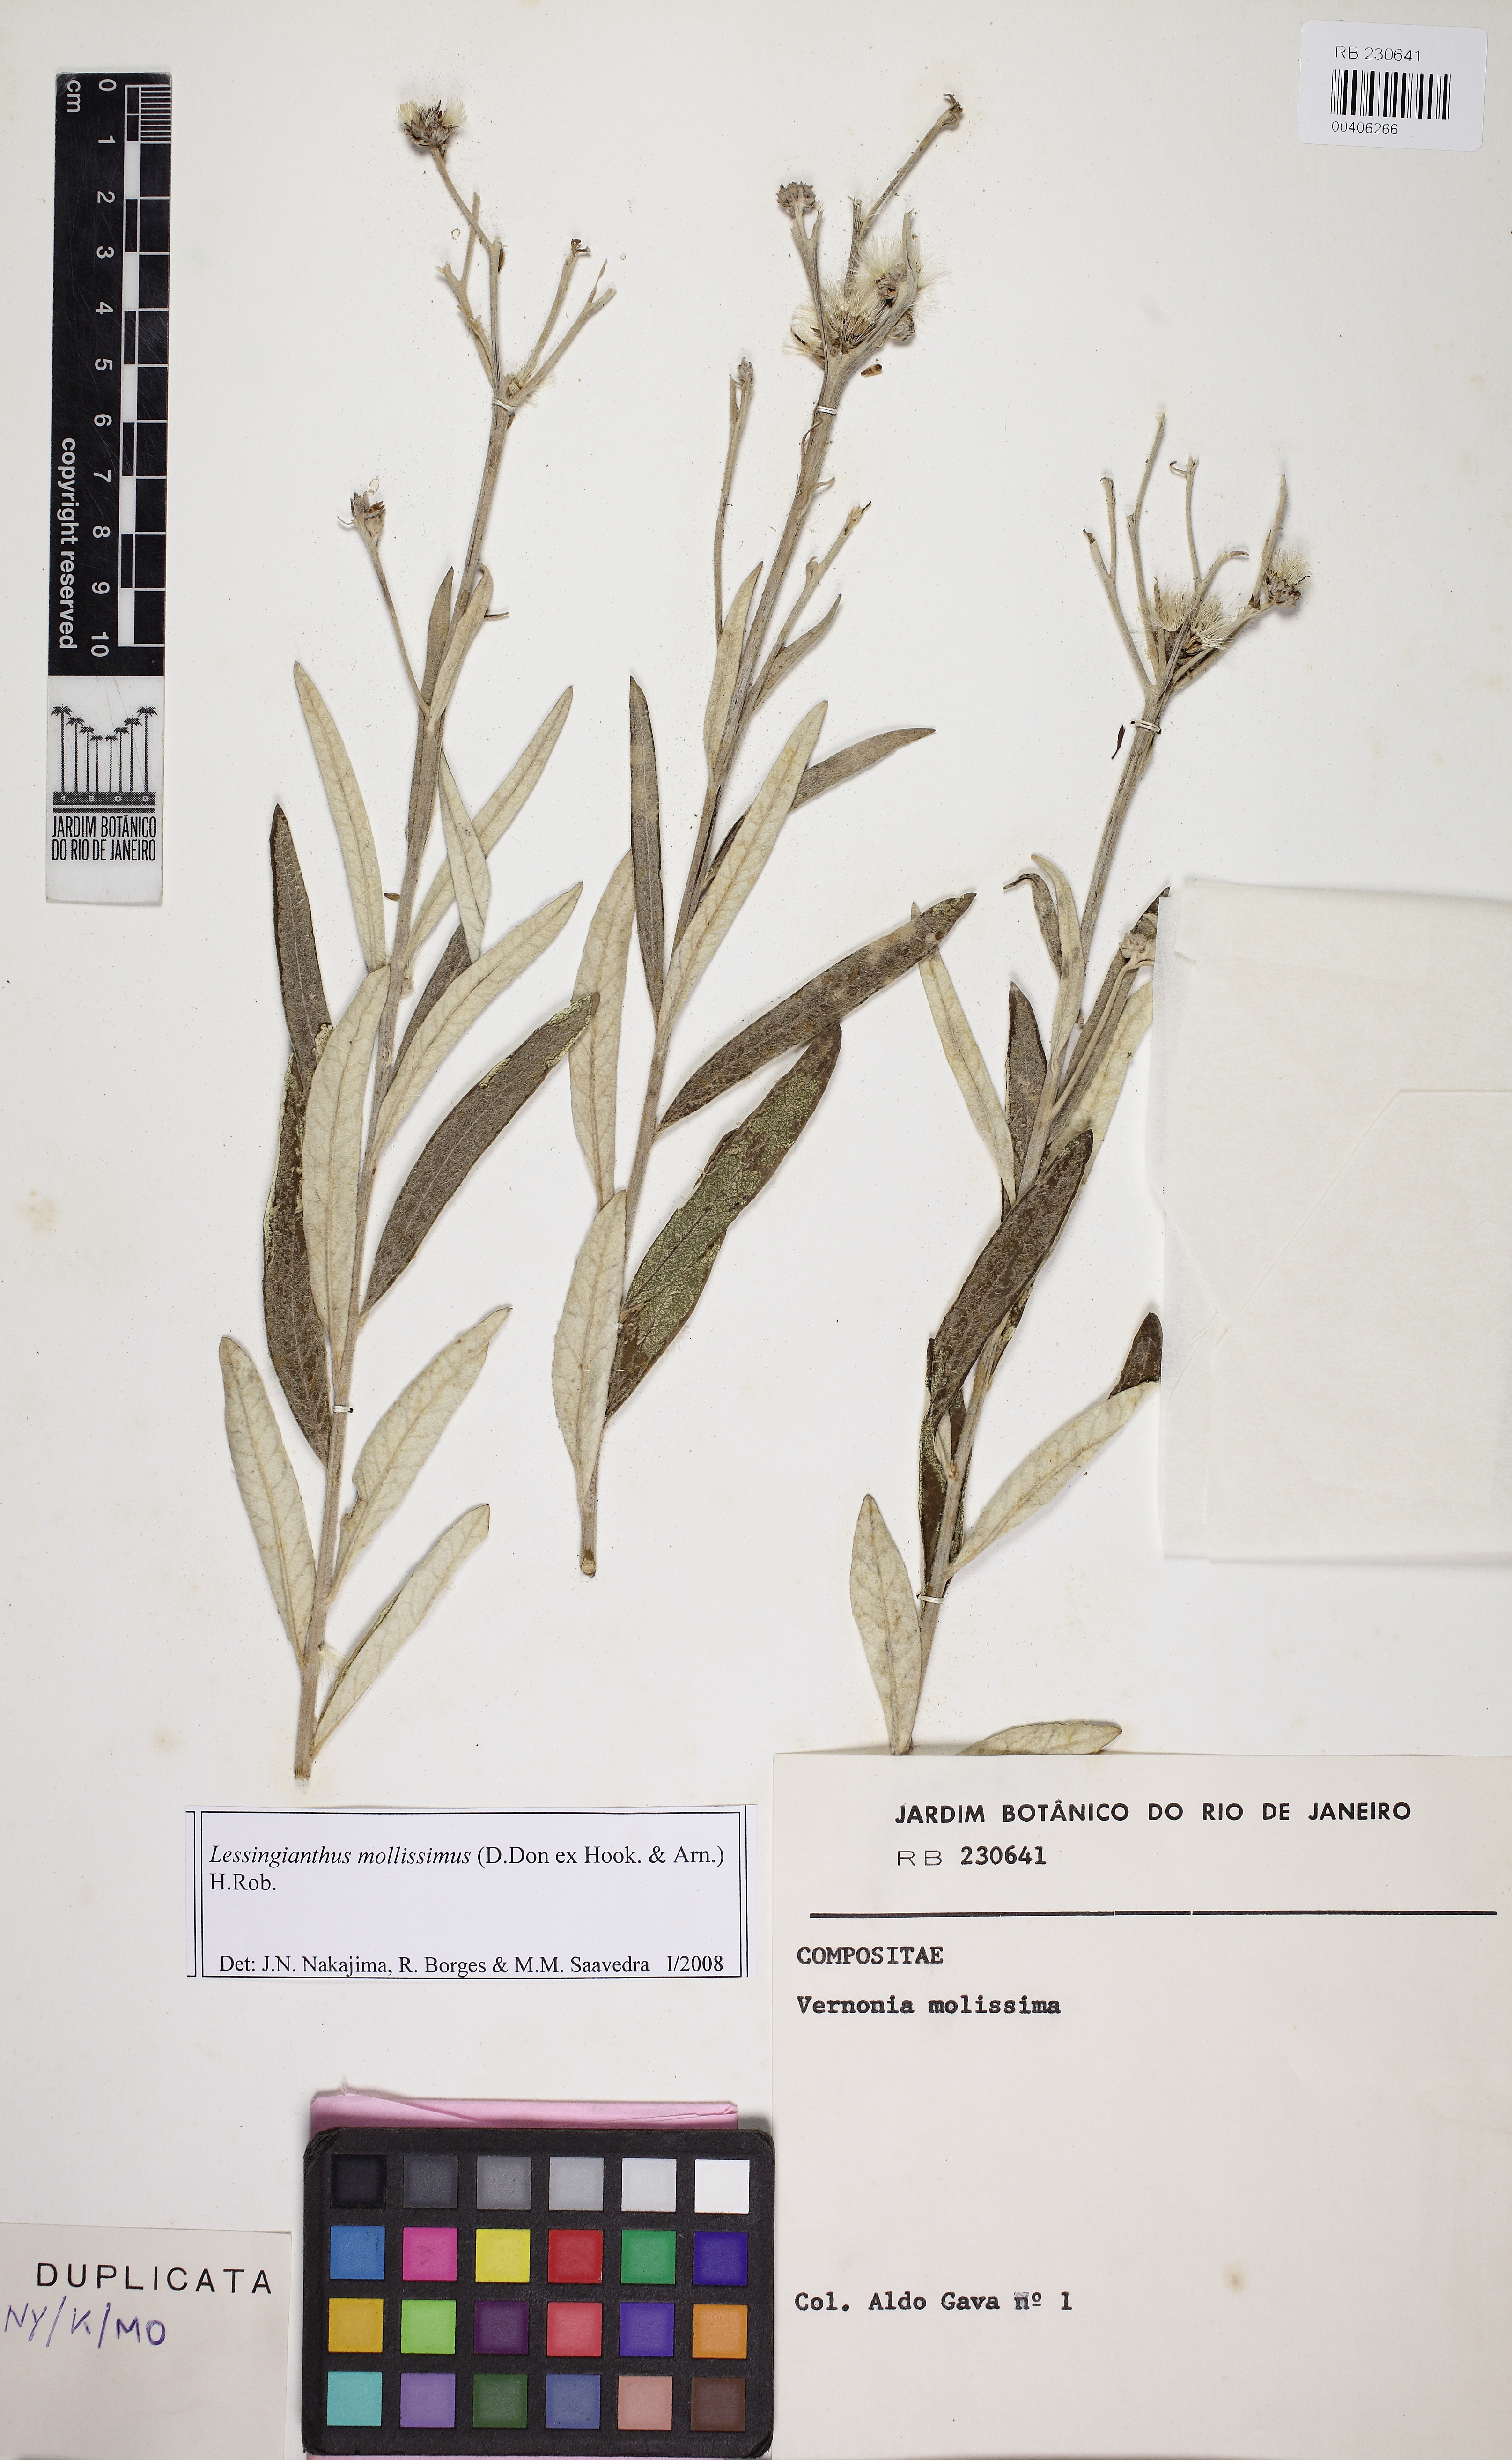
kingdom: Plantae
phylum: Tracheophyta
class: Magnoliopsida
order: Asterales
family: Asteraceae
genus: Lessingianthus
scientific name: Lessingianthus mollissimus
